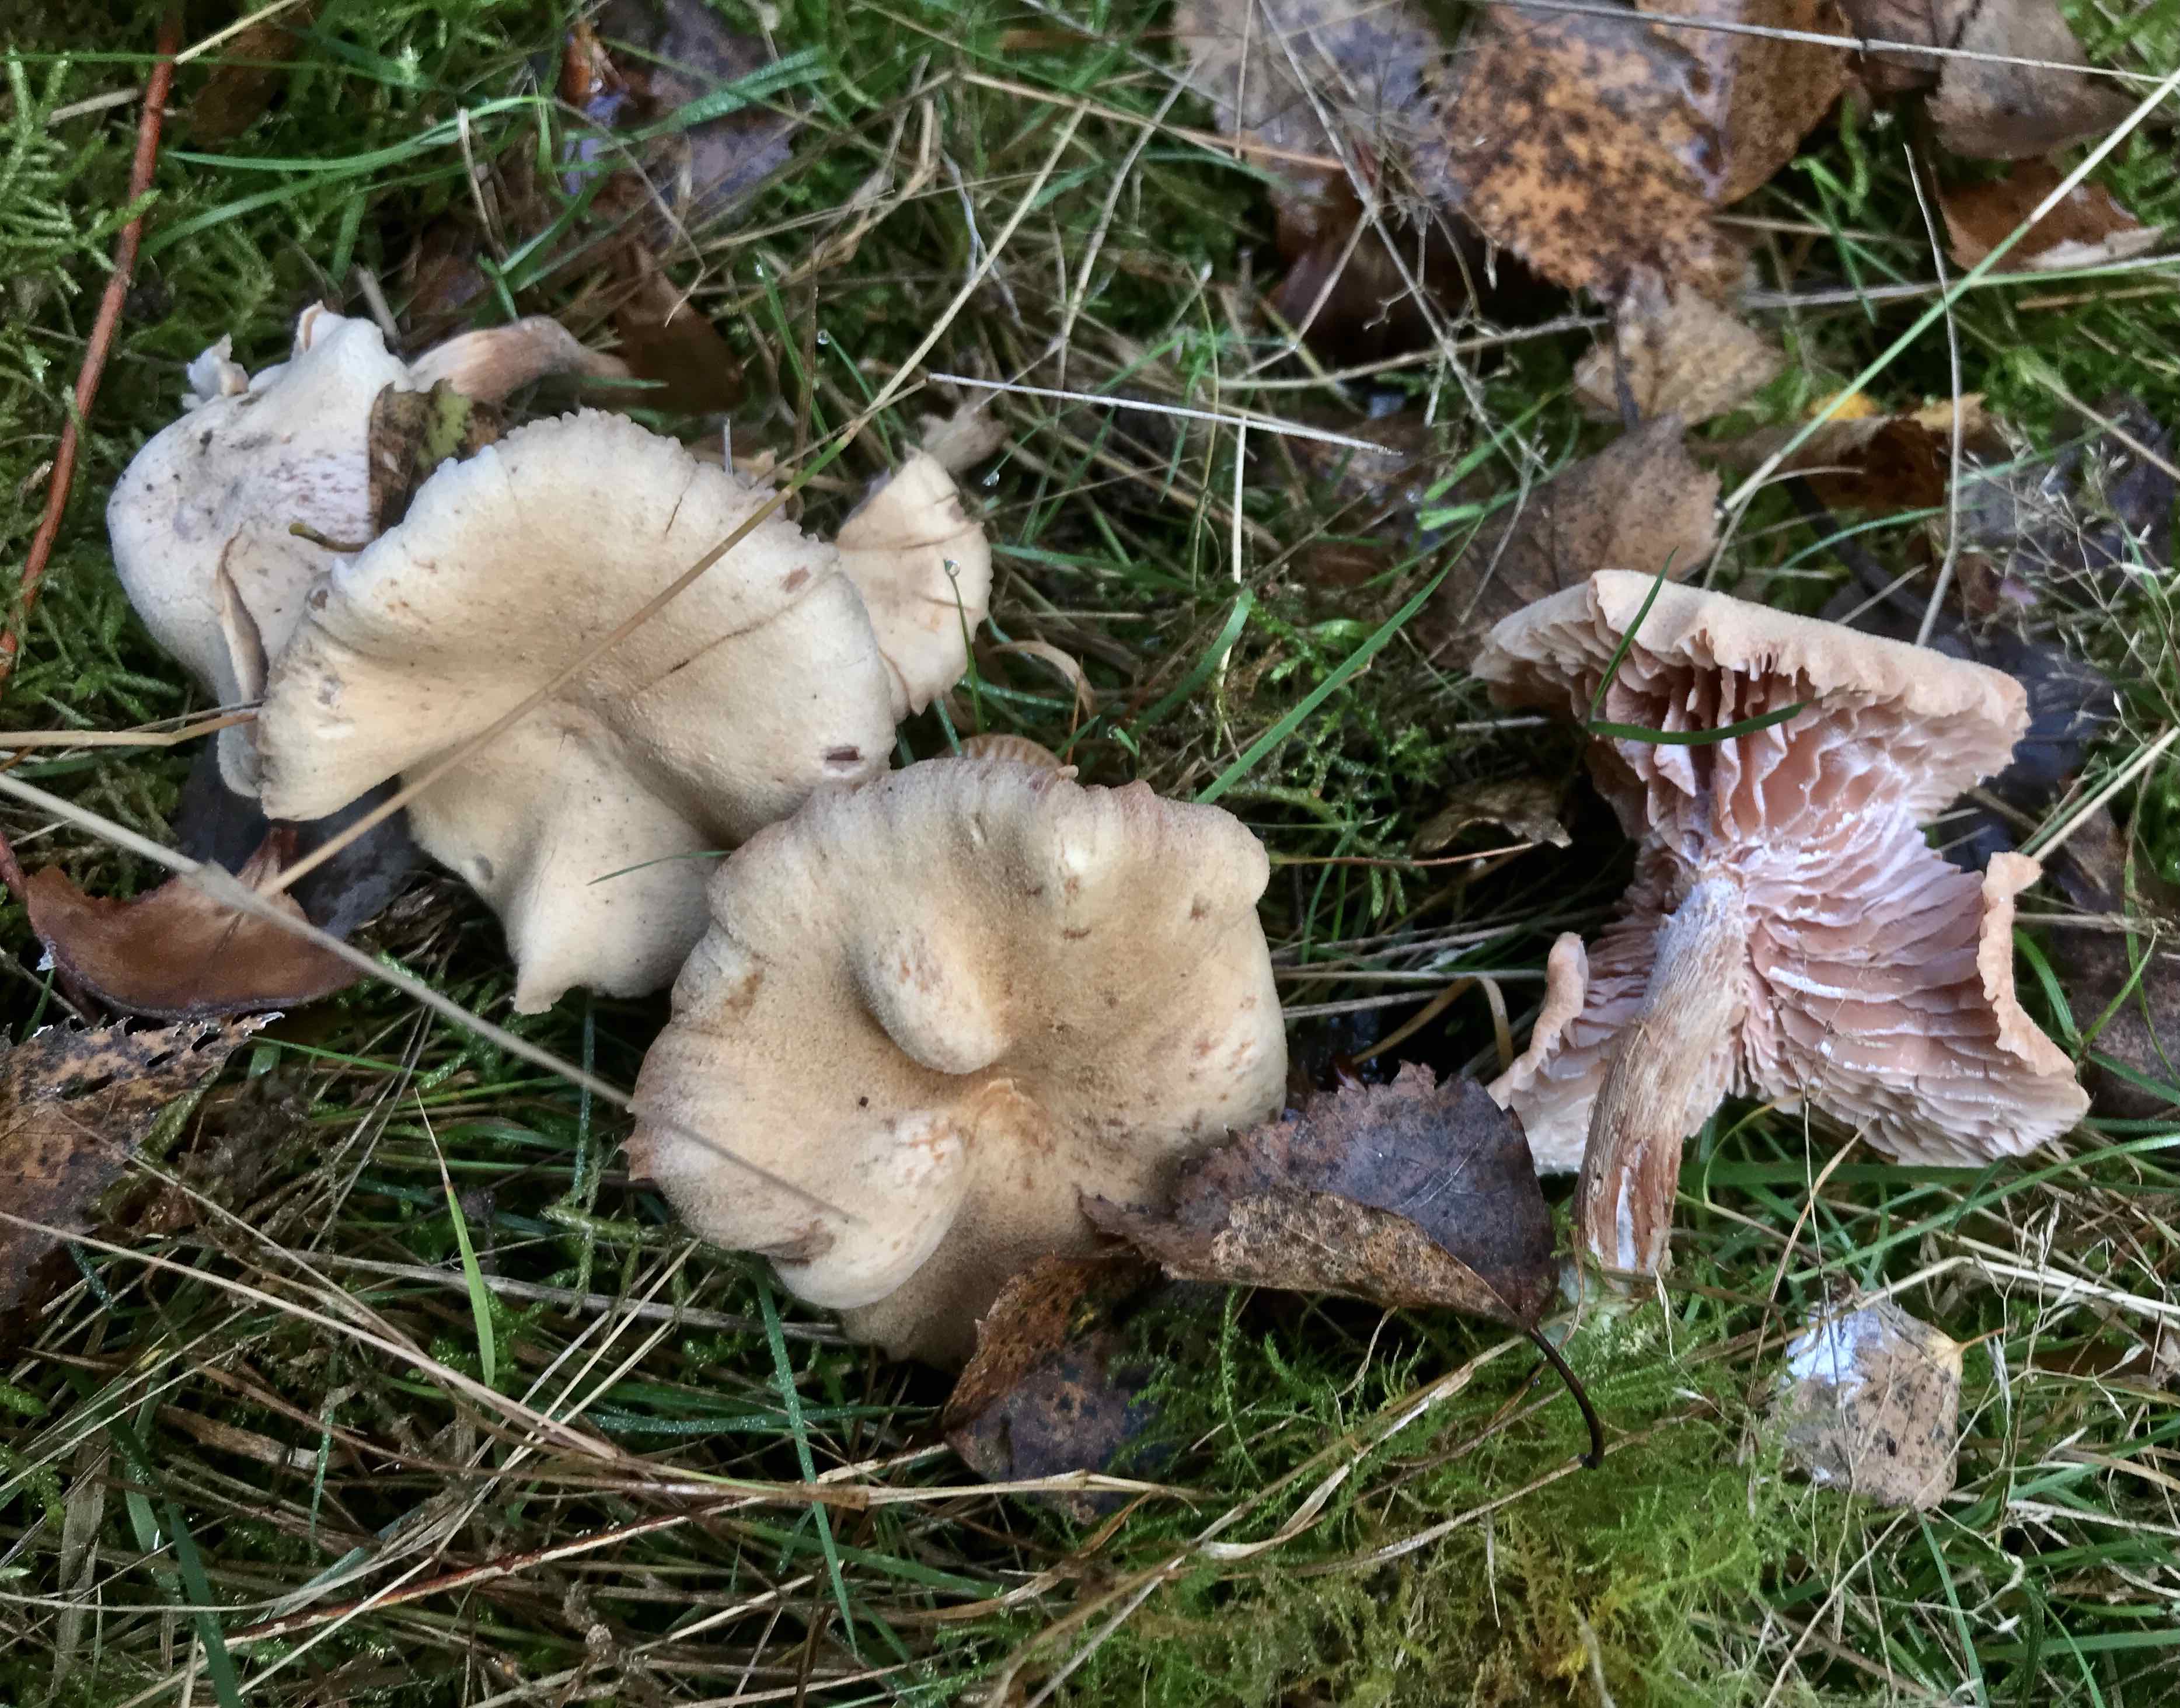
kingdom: Fungi
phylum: Basidiomycota
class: Agaricomycetes
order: Agaricales
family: Hydnangiaceae
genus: Laccaria
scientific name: Laccaria proxima
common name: stor ametysthat
